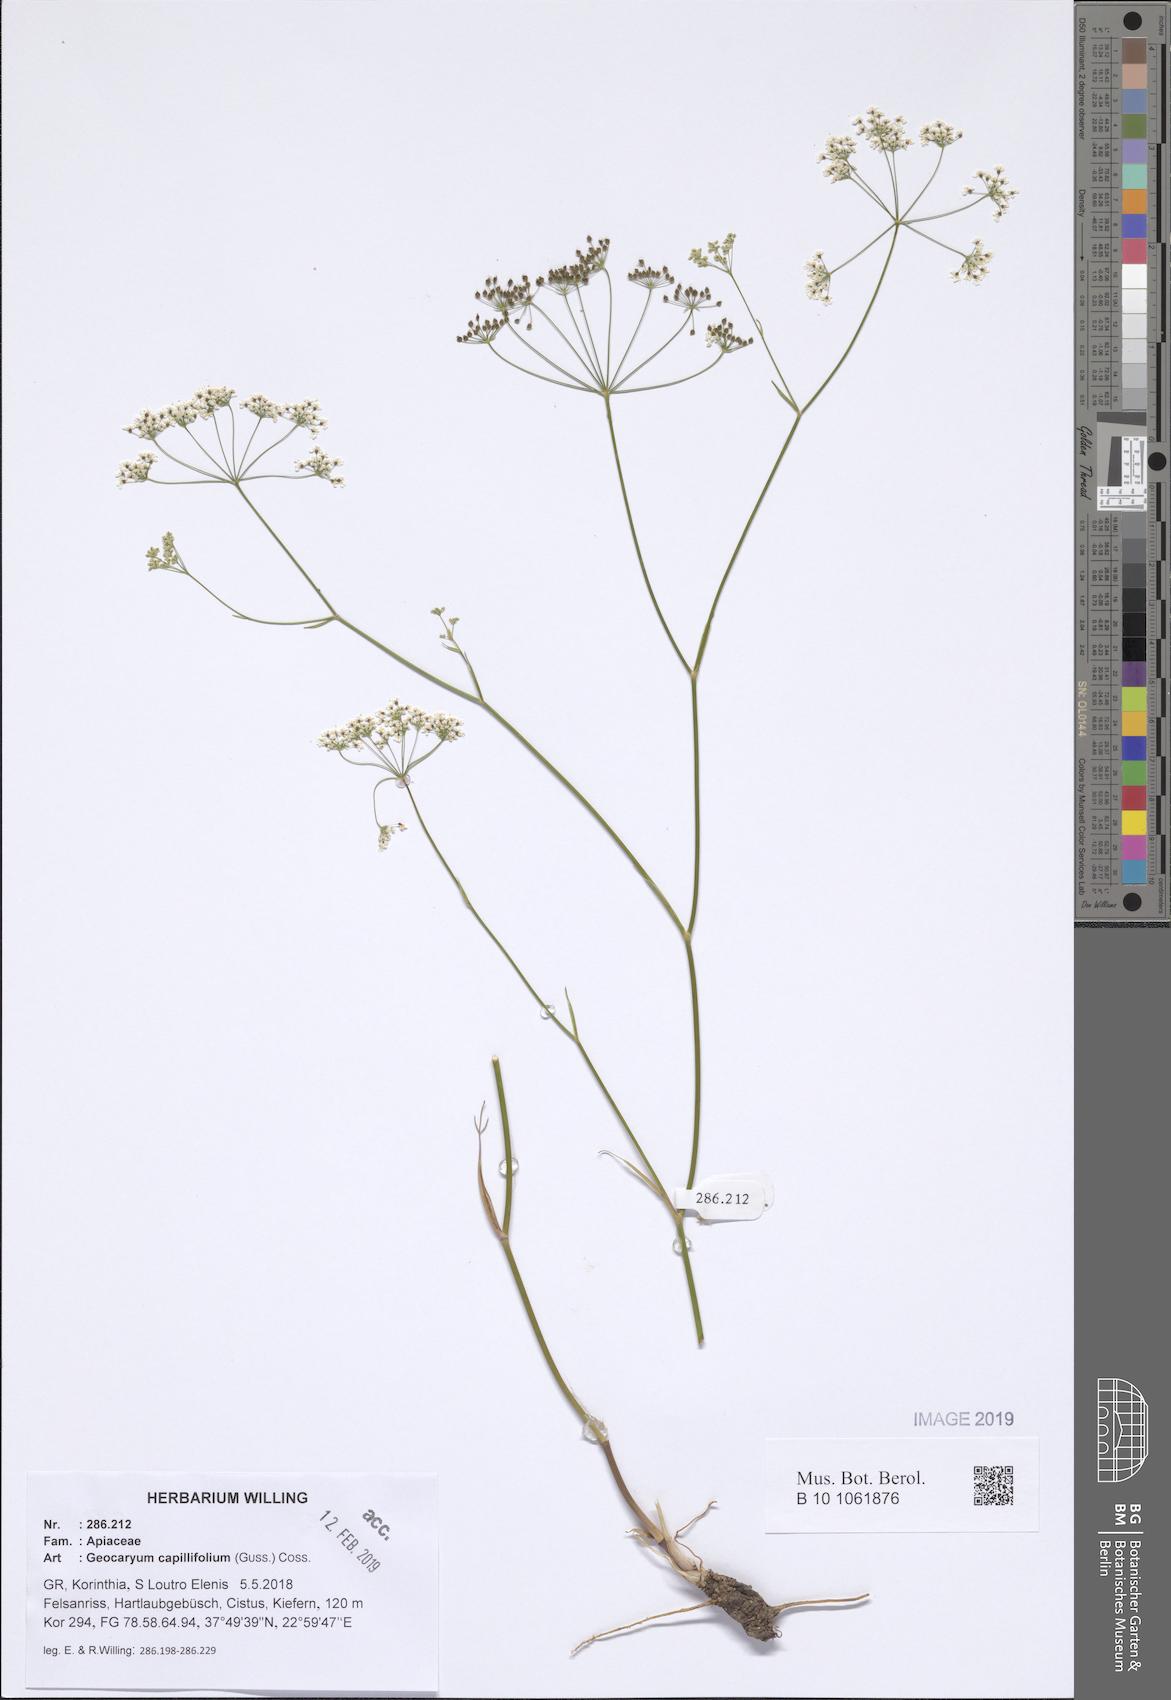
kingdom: Plantae
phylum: Tracheophyta
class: Magnoliopsida
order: Apiales
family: Apiaceae
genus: Geocaryum
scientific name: Geocaryum capillifolium
